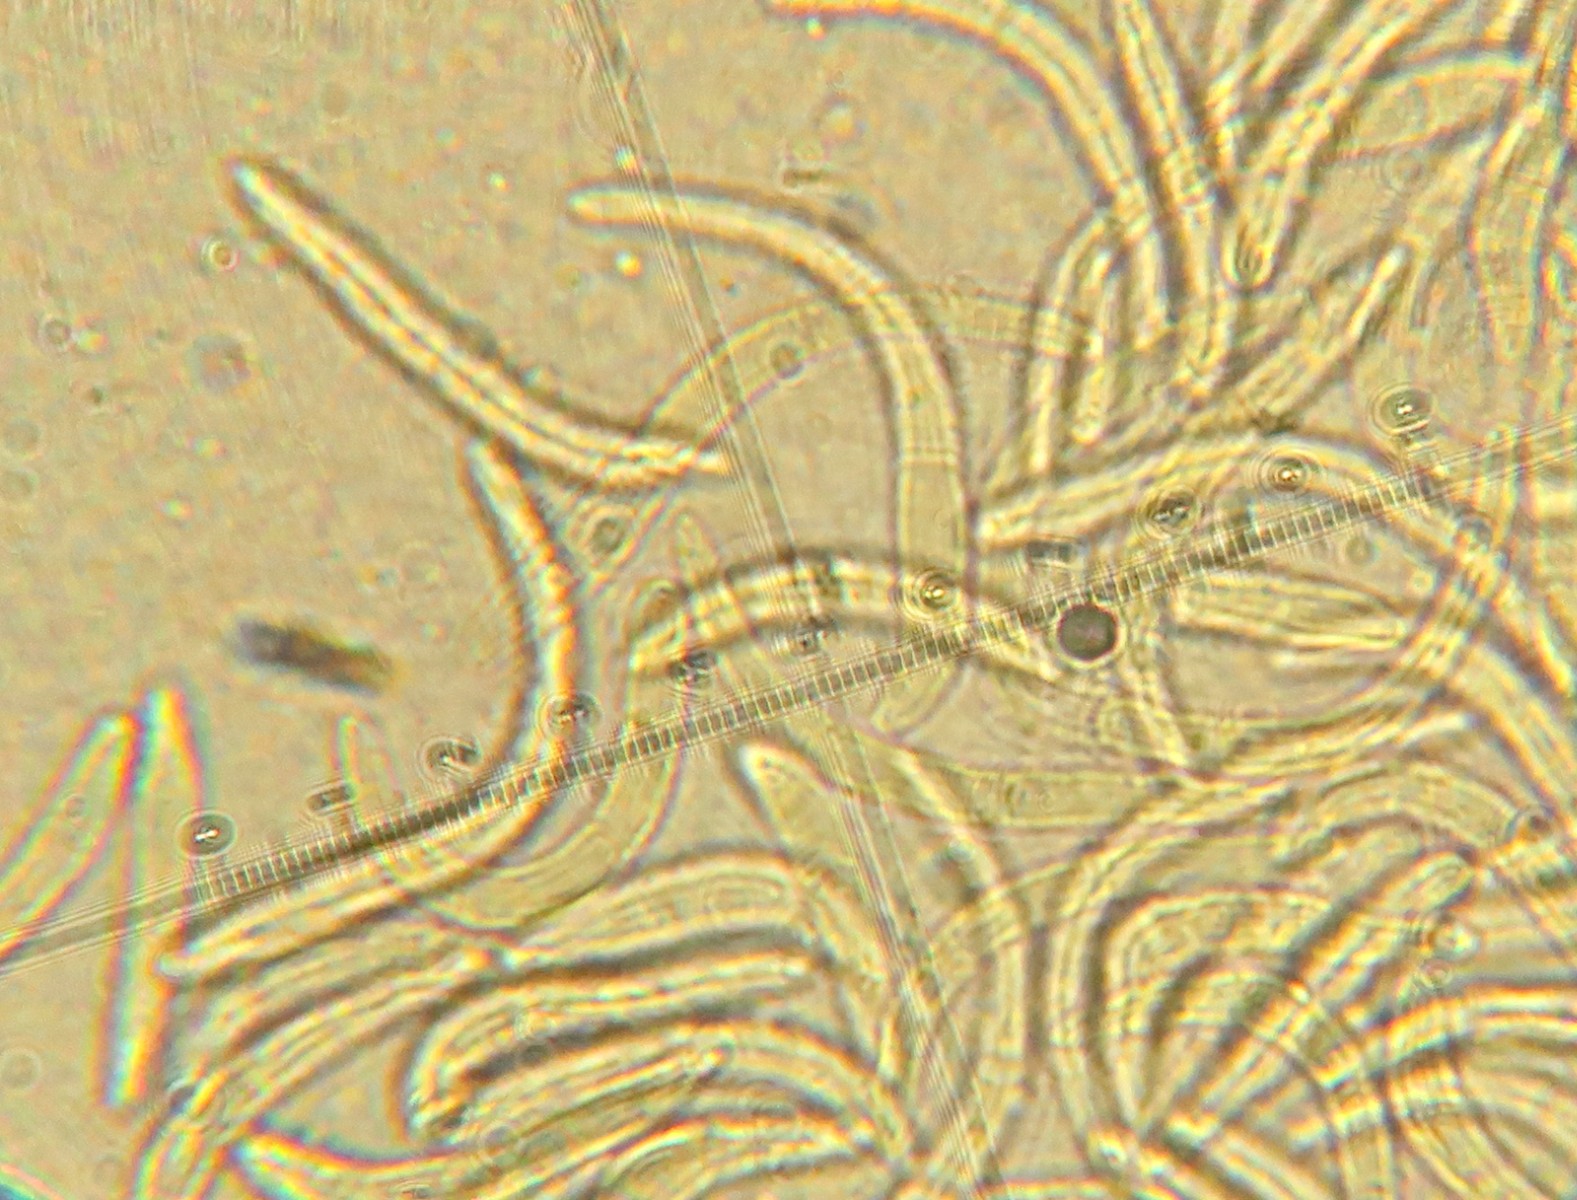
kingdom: Fungi
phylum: Ascomycota
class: Dothideomycetes
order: Mycosphaerellales
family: Mycosphaerellaceae
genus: Mycosphaerella
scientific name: Mycosphaerella ulmi
